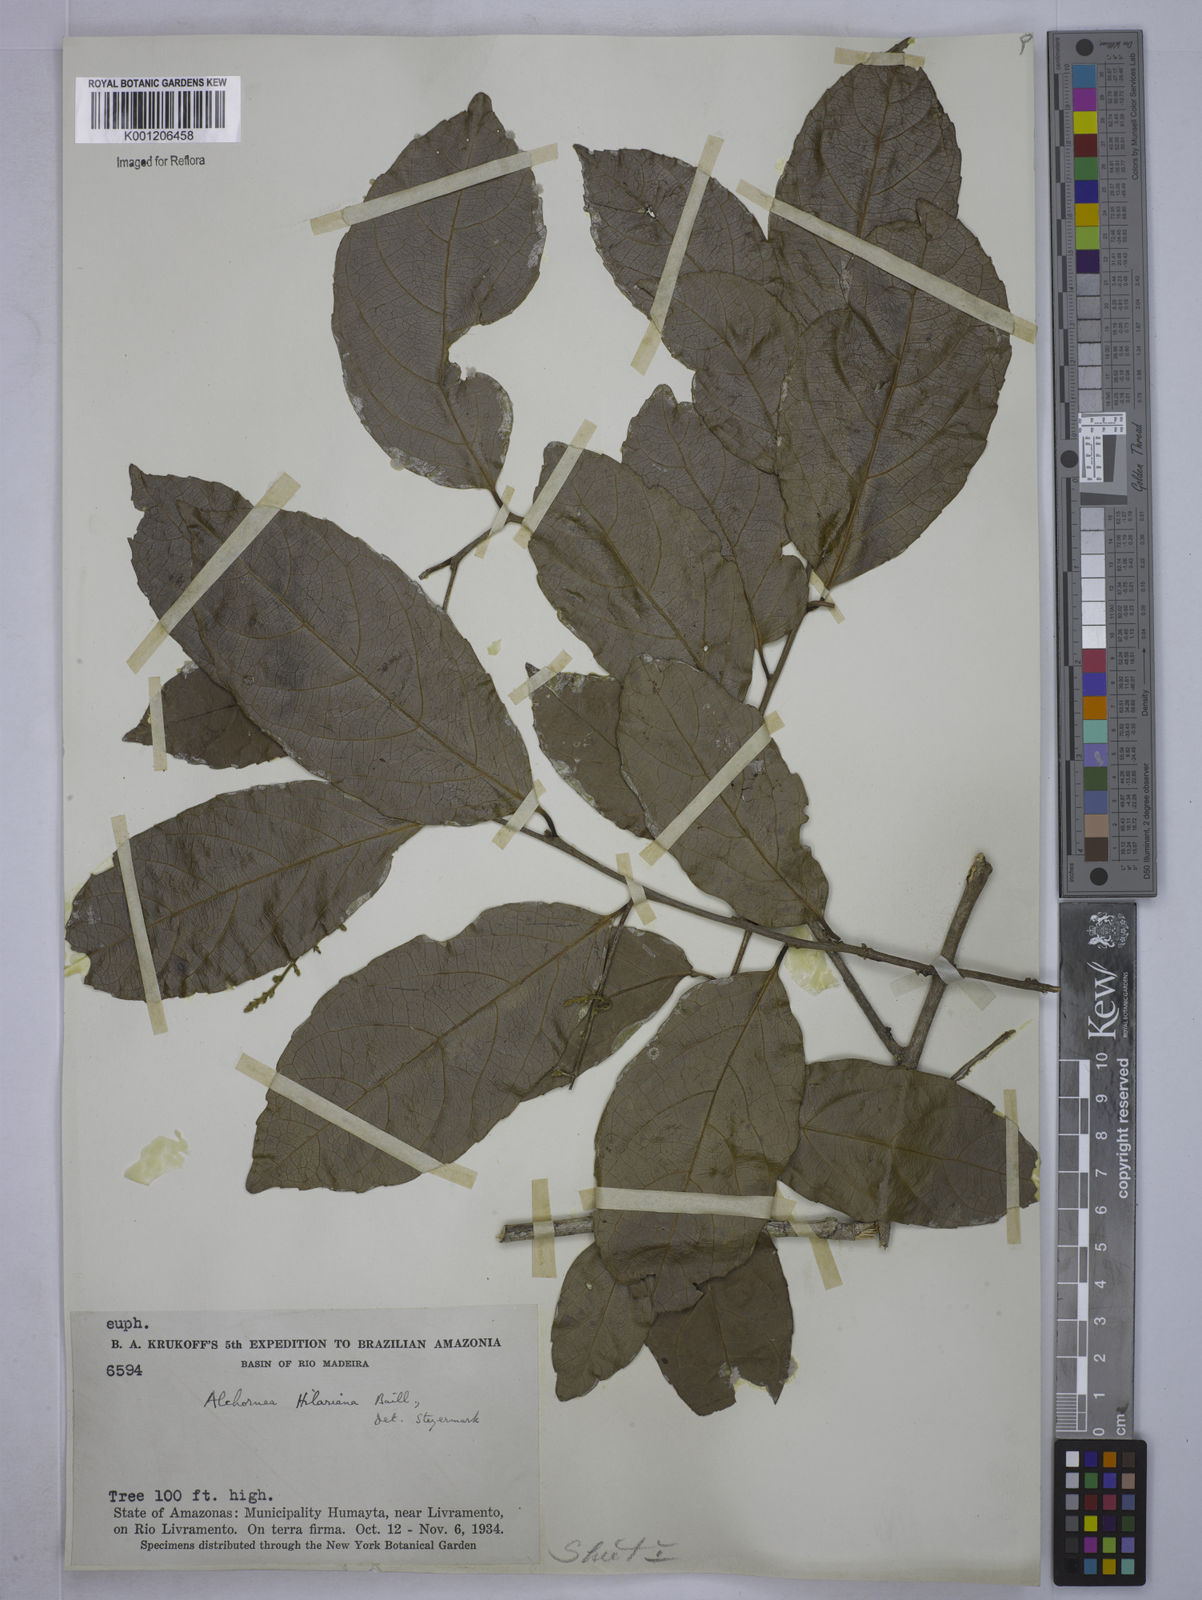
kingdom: Plantae
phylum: Tracheophyta
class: Magnoliopsida
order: Malpighiales
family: Euphorbiaceae
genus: Conceveiba
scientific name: Conceveiba praealta
